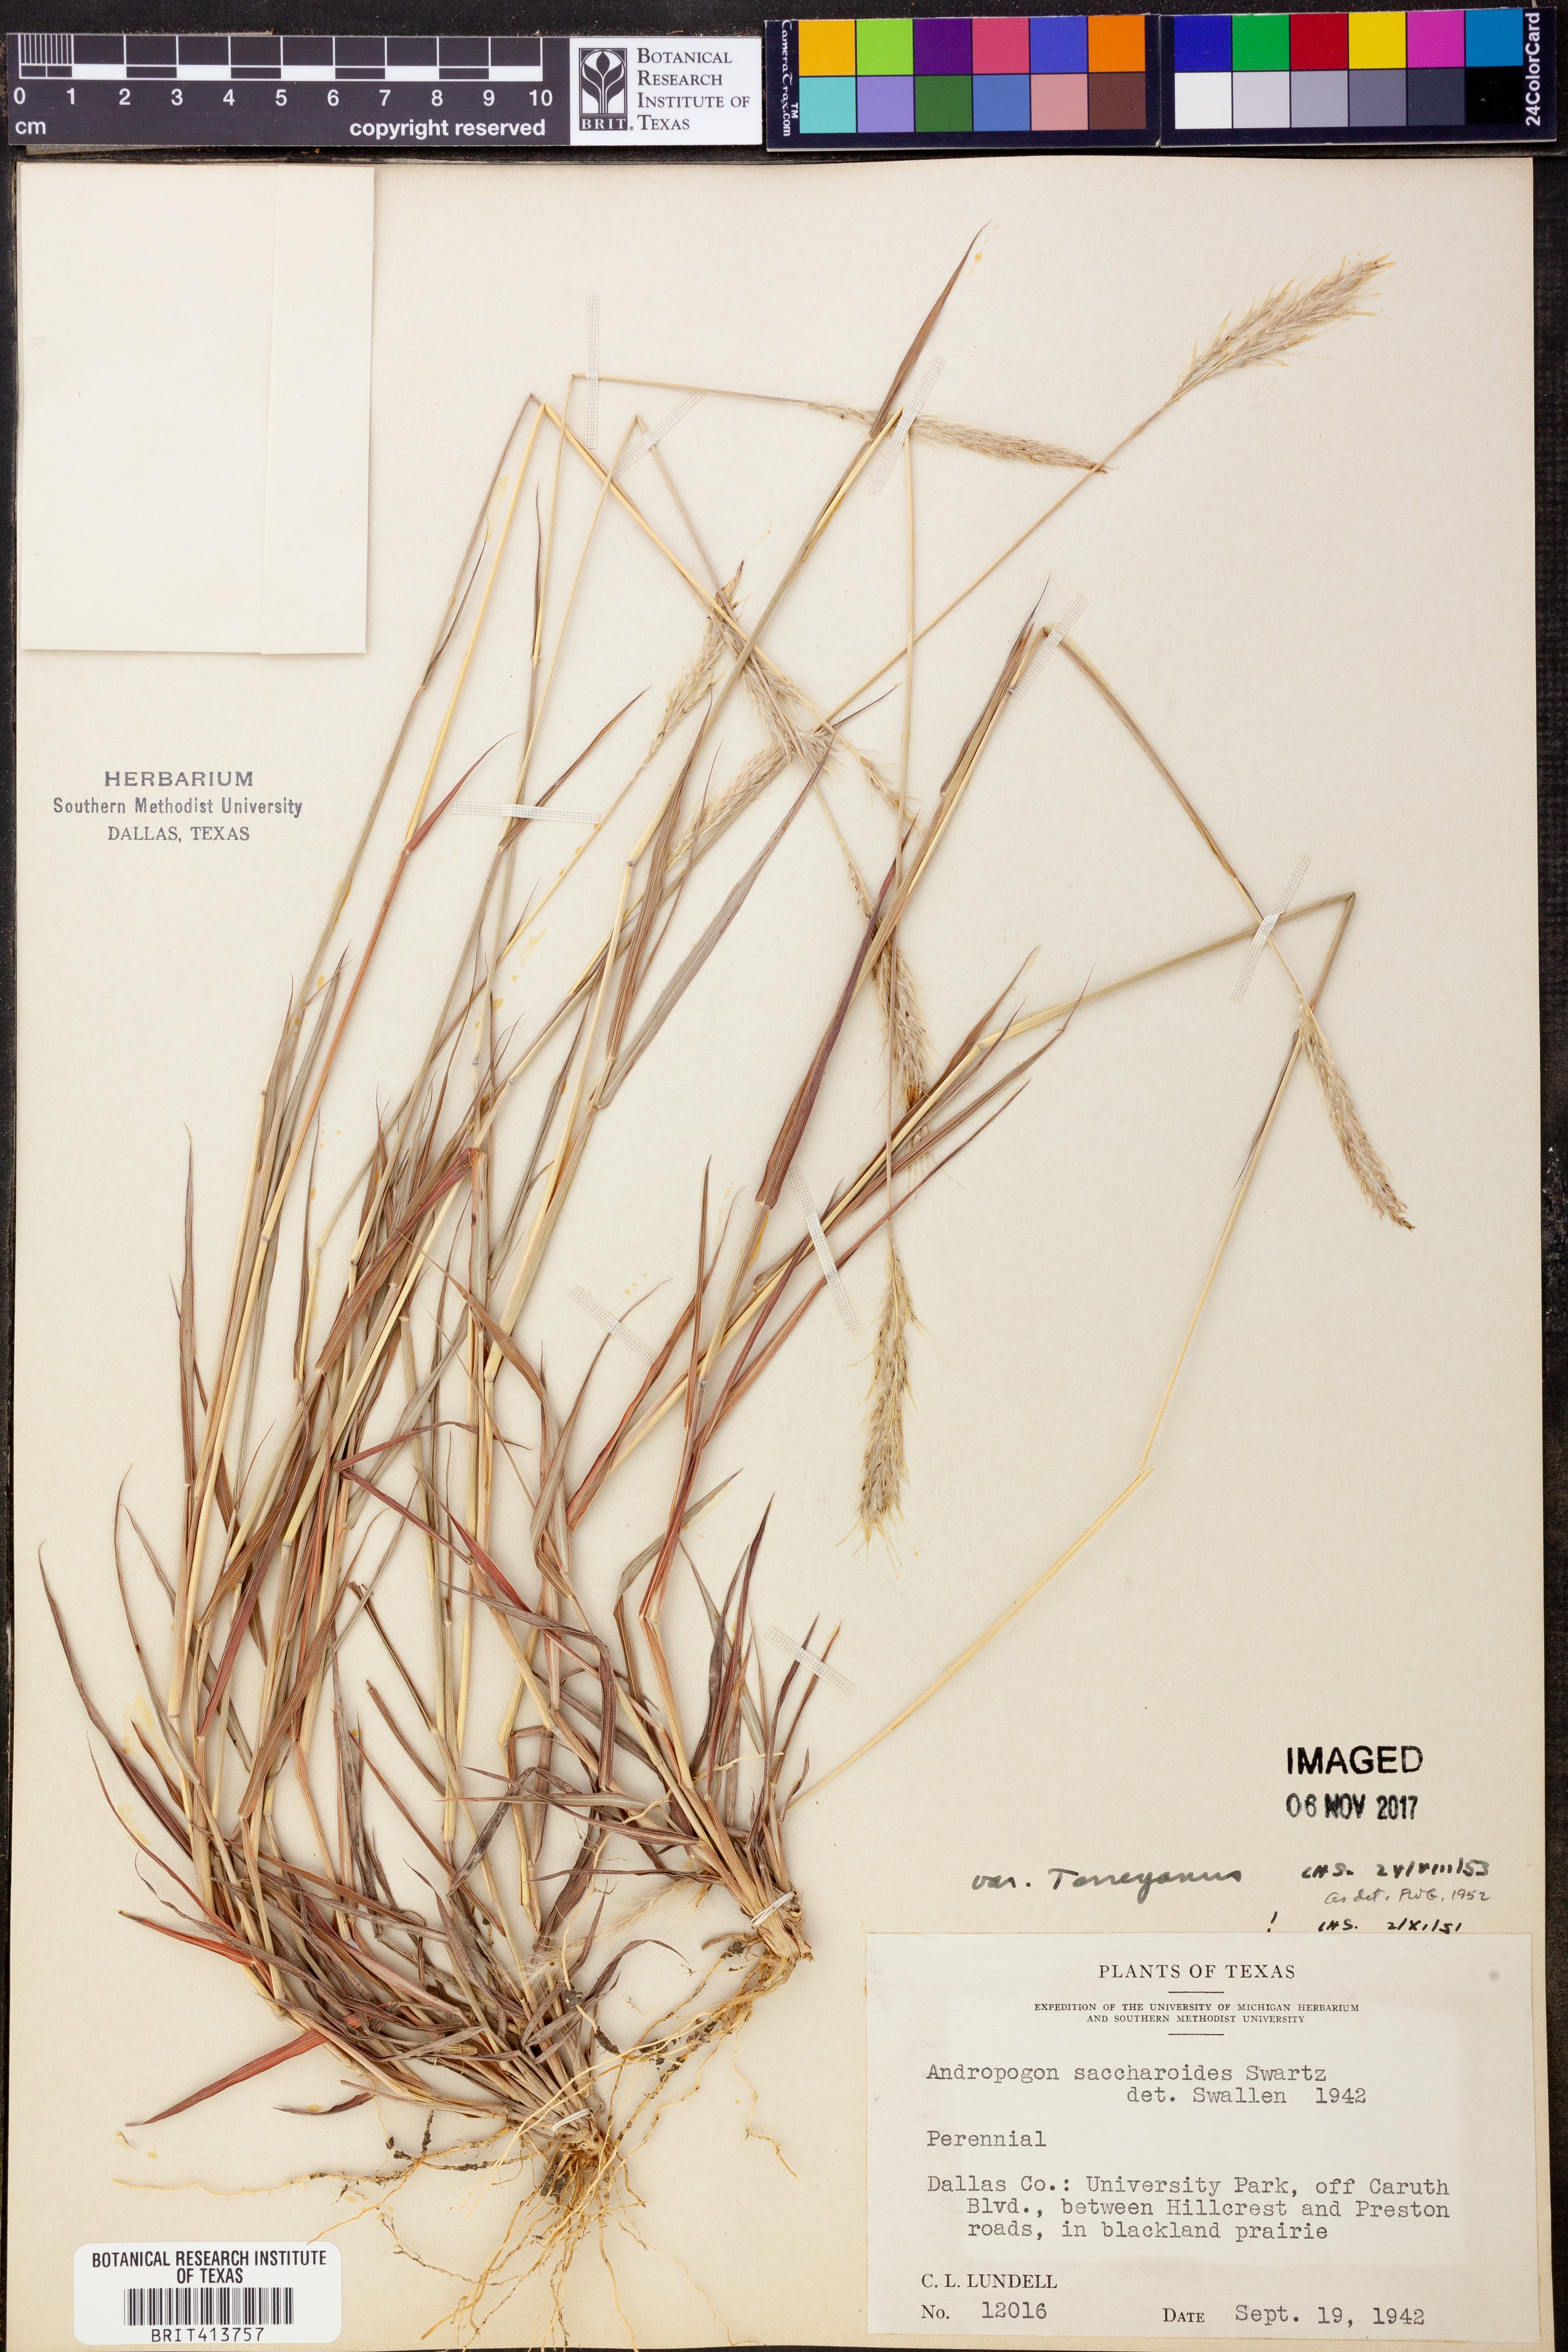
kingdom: Plantae
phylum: Tracheophyta
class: Liliopsida
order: Poales
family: Poaceae
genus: Bothriochloa
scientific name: Bothriochloa torreyana
